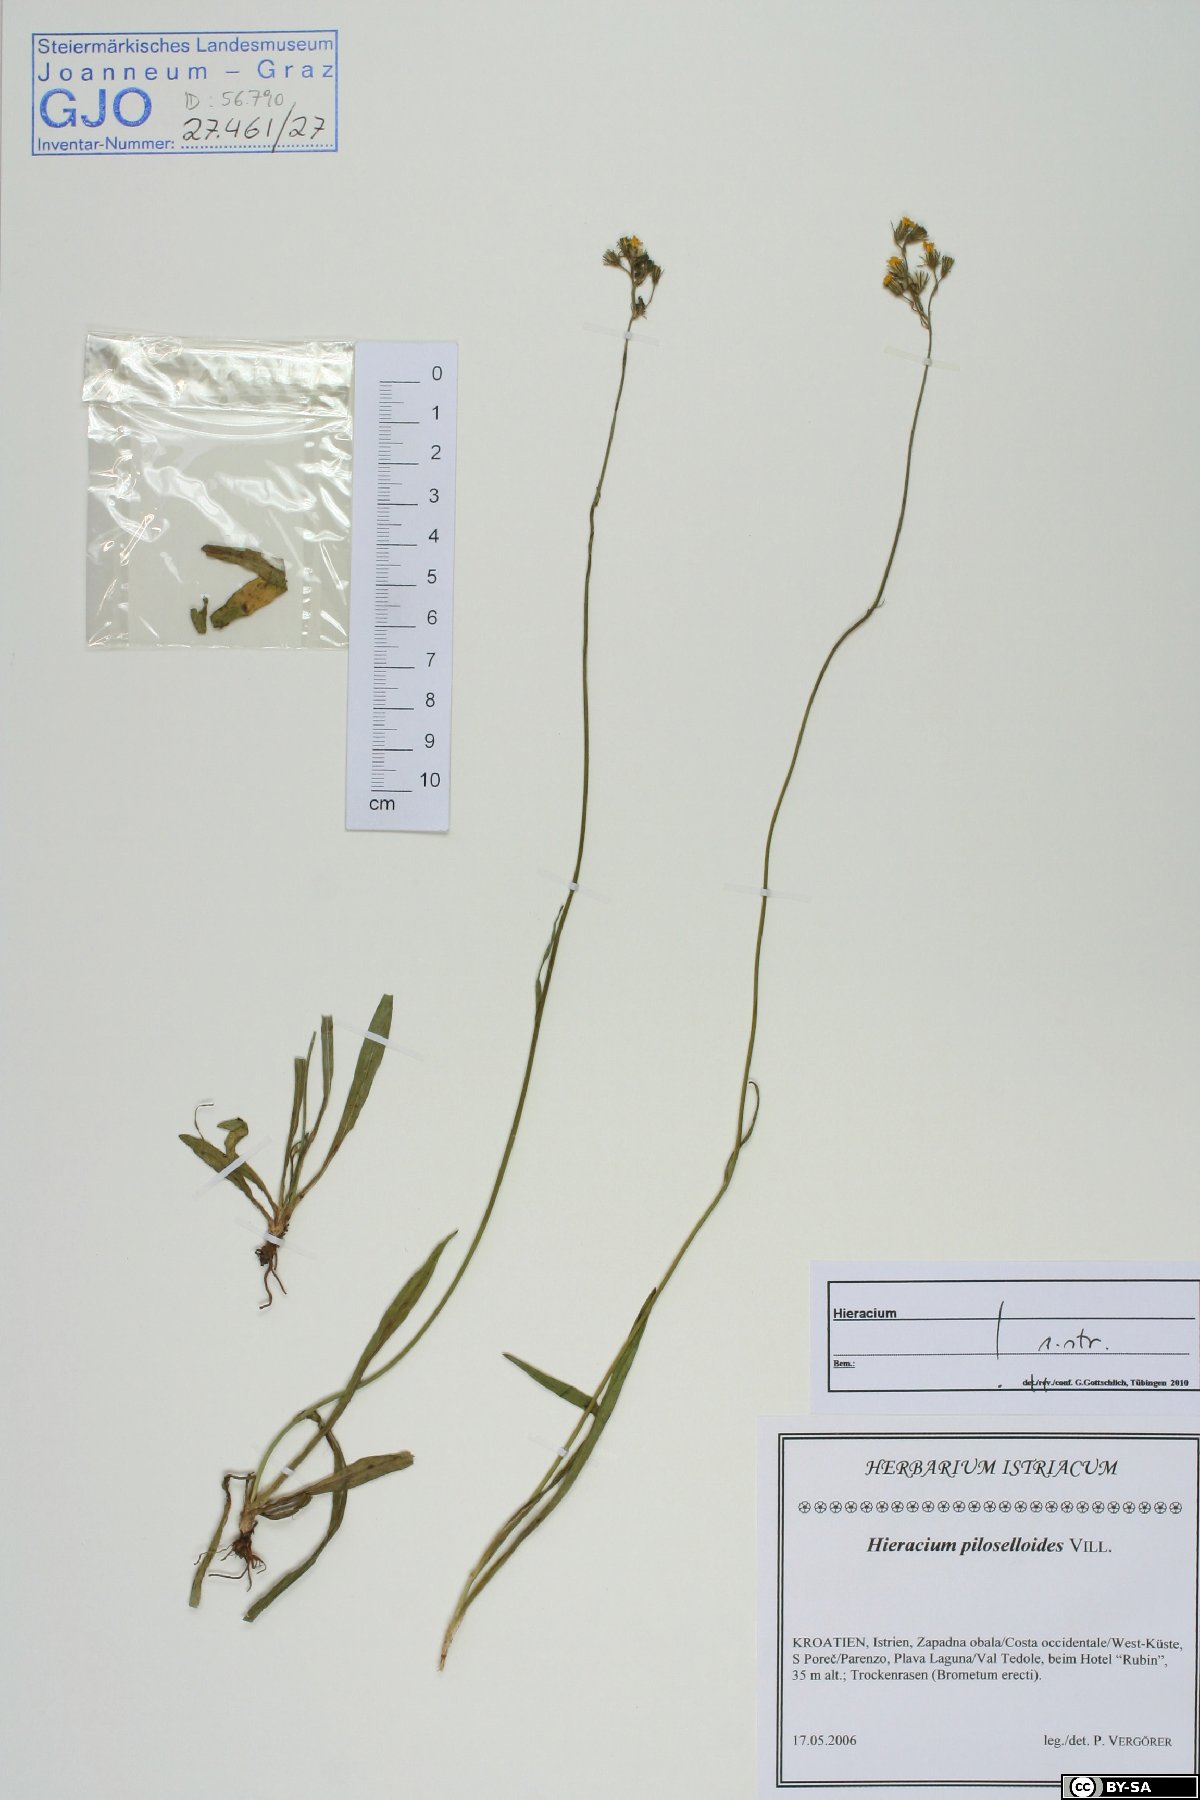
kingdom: Plantae
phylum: Tracheophyta
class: Magnoliopsida
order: Asterales
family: Asteraceae
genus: Pilosella
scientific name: Pilosella piloselloides
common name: Glaucous king-devil
